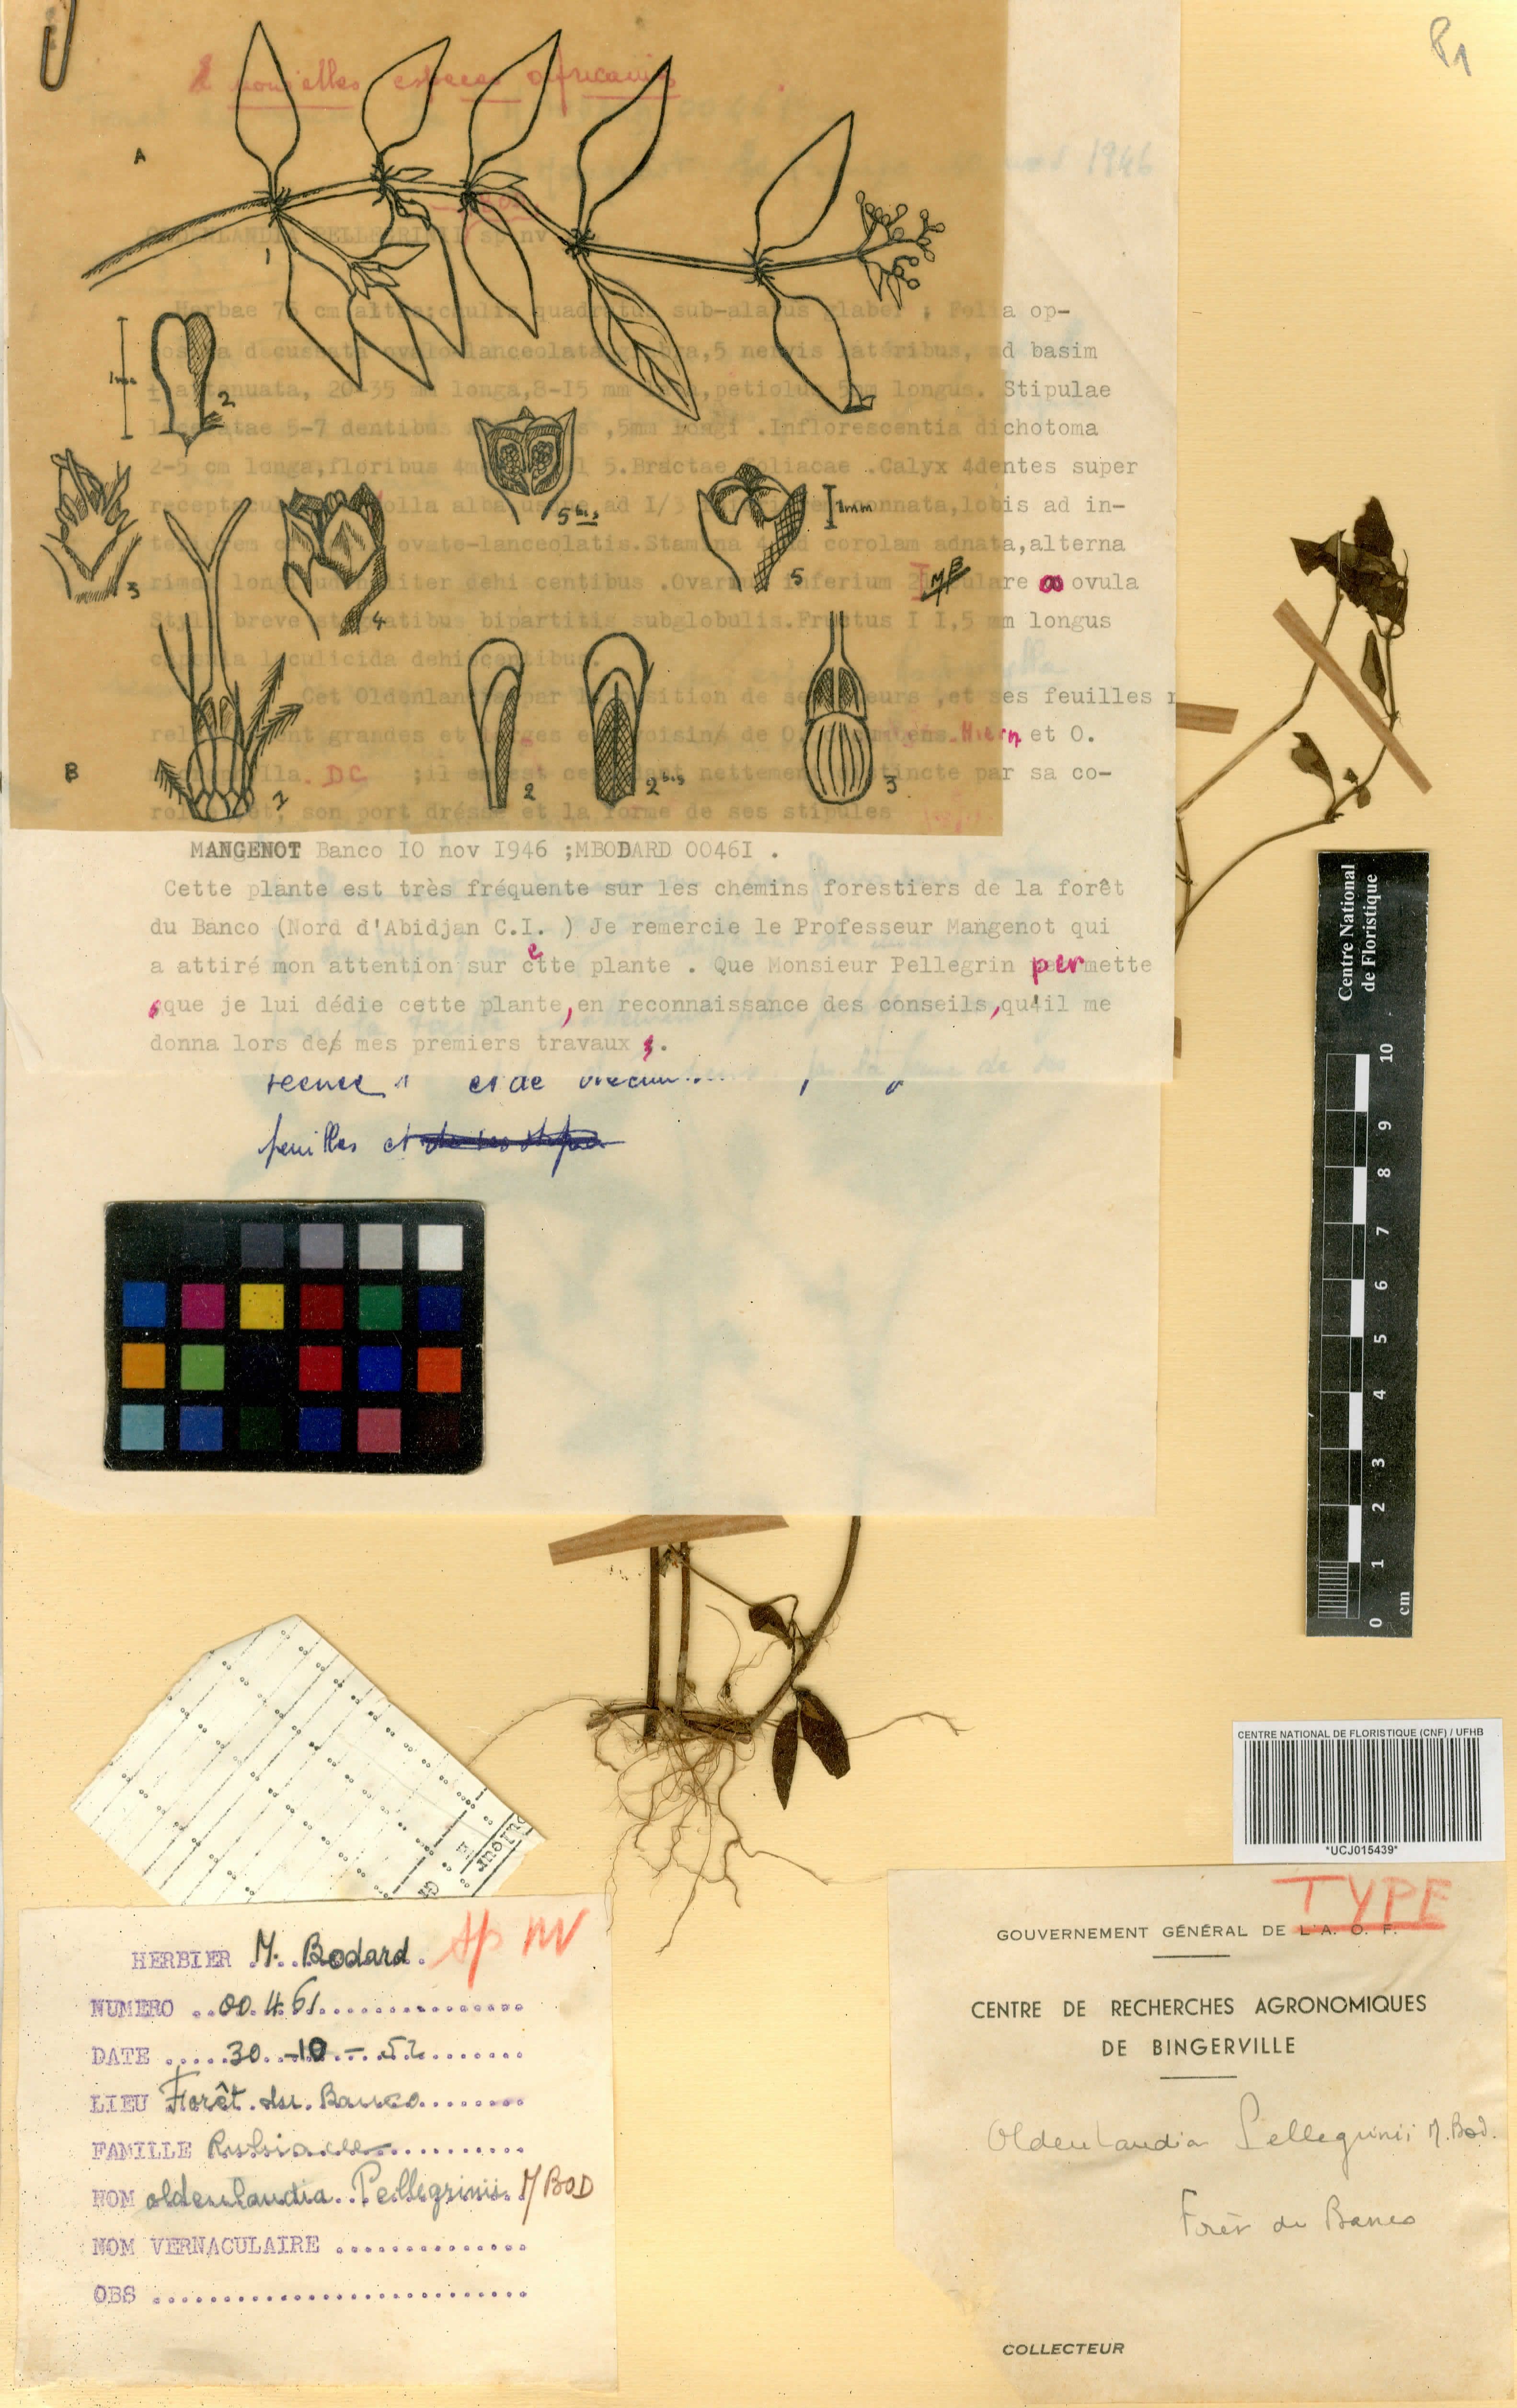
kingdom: Plantae
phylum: Tracheophyta
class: Magnoliopsida
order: Gentianales
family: Rubiaceae
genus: Oldenlandia
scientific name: Oldenlandia chevalieri
